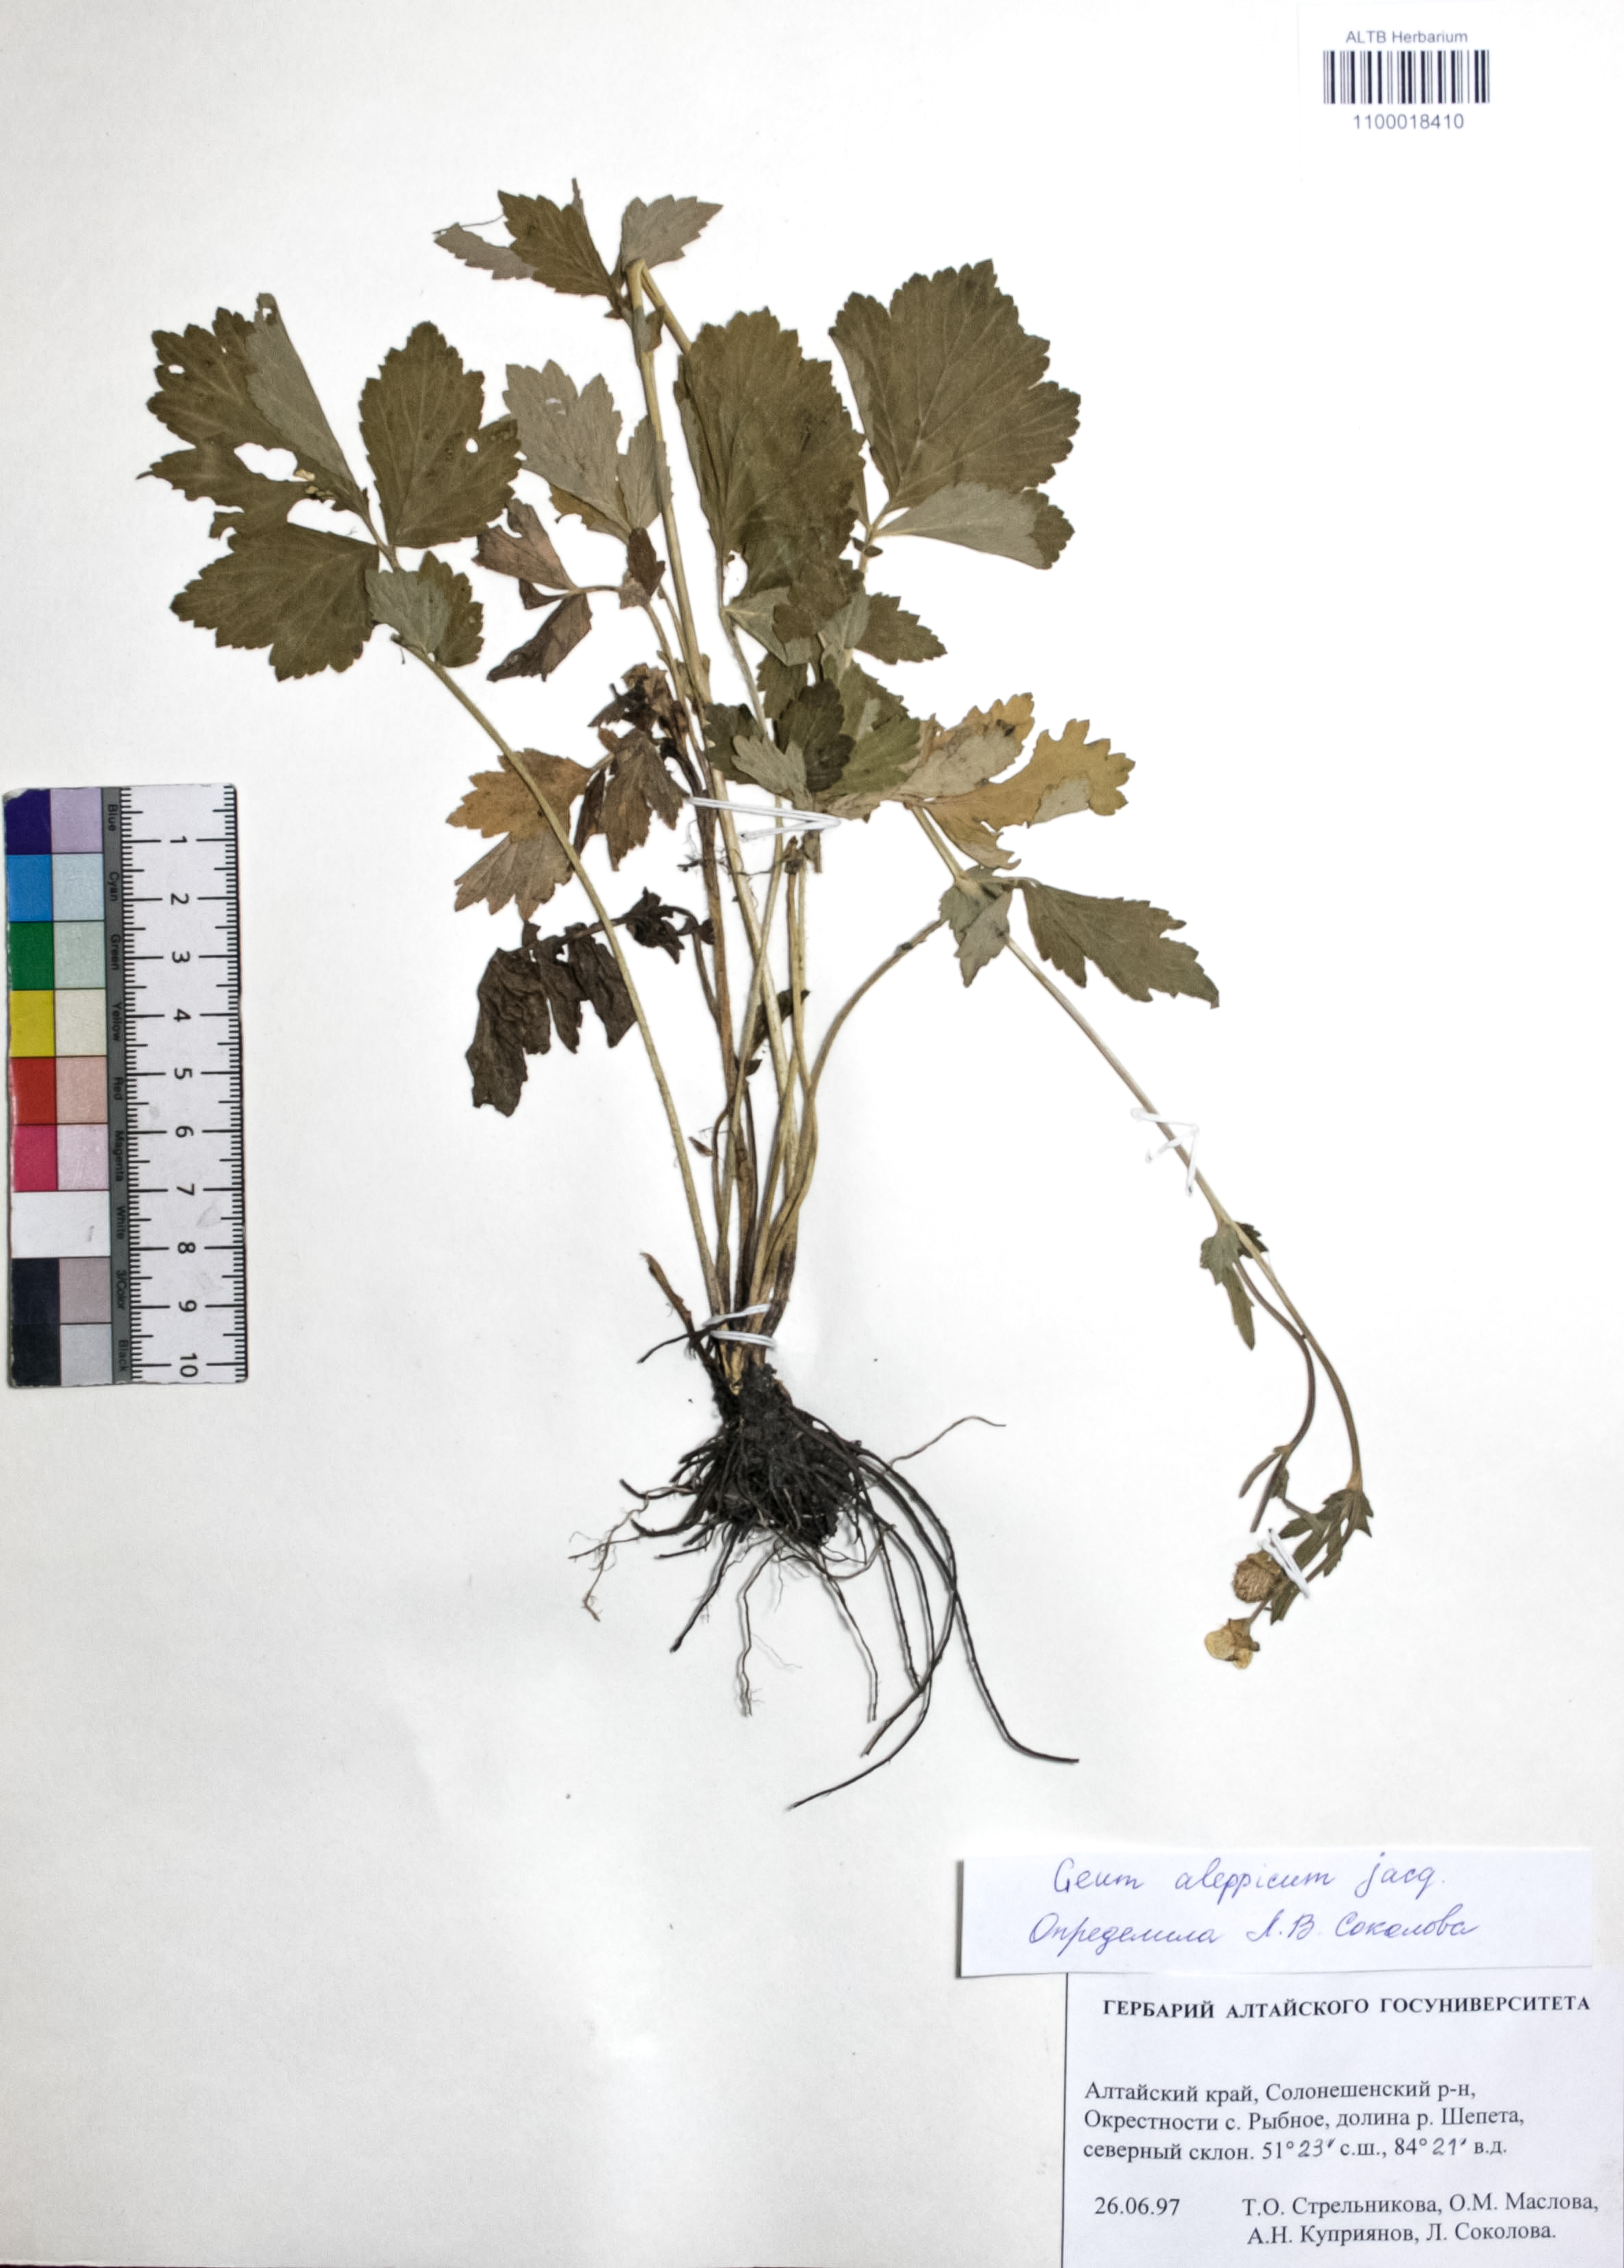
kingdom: Plantae
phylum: Tracheophyta
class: Magnoliopsida
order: Rosales
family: Rosaceae
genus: Geum
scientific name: Geum aleppicum
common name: Yellow avens
